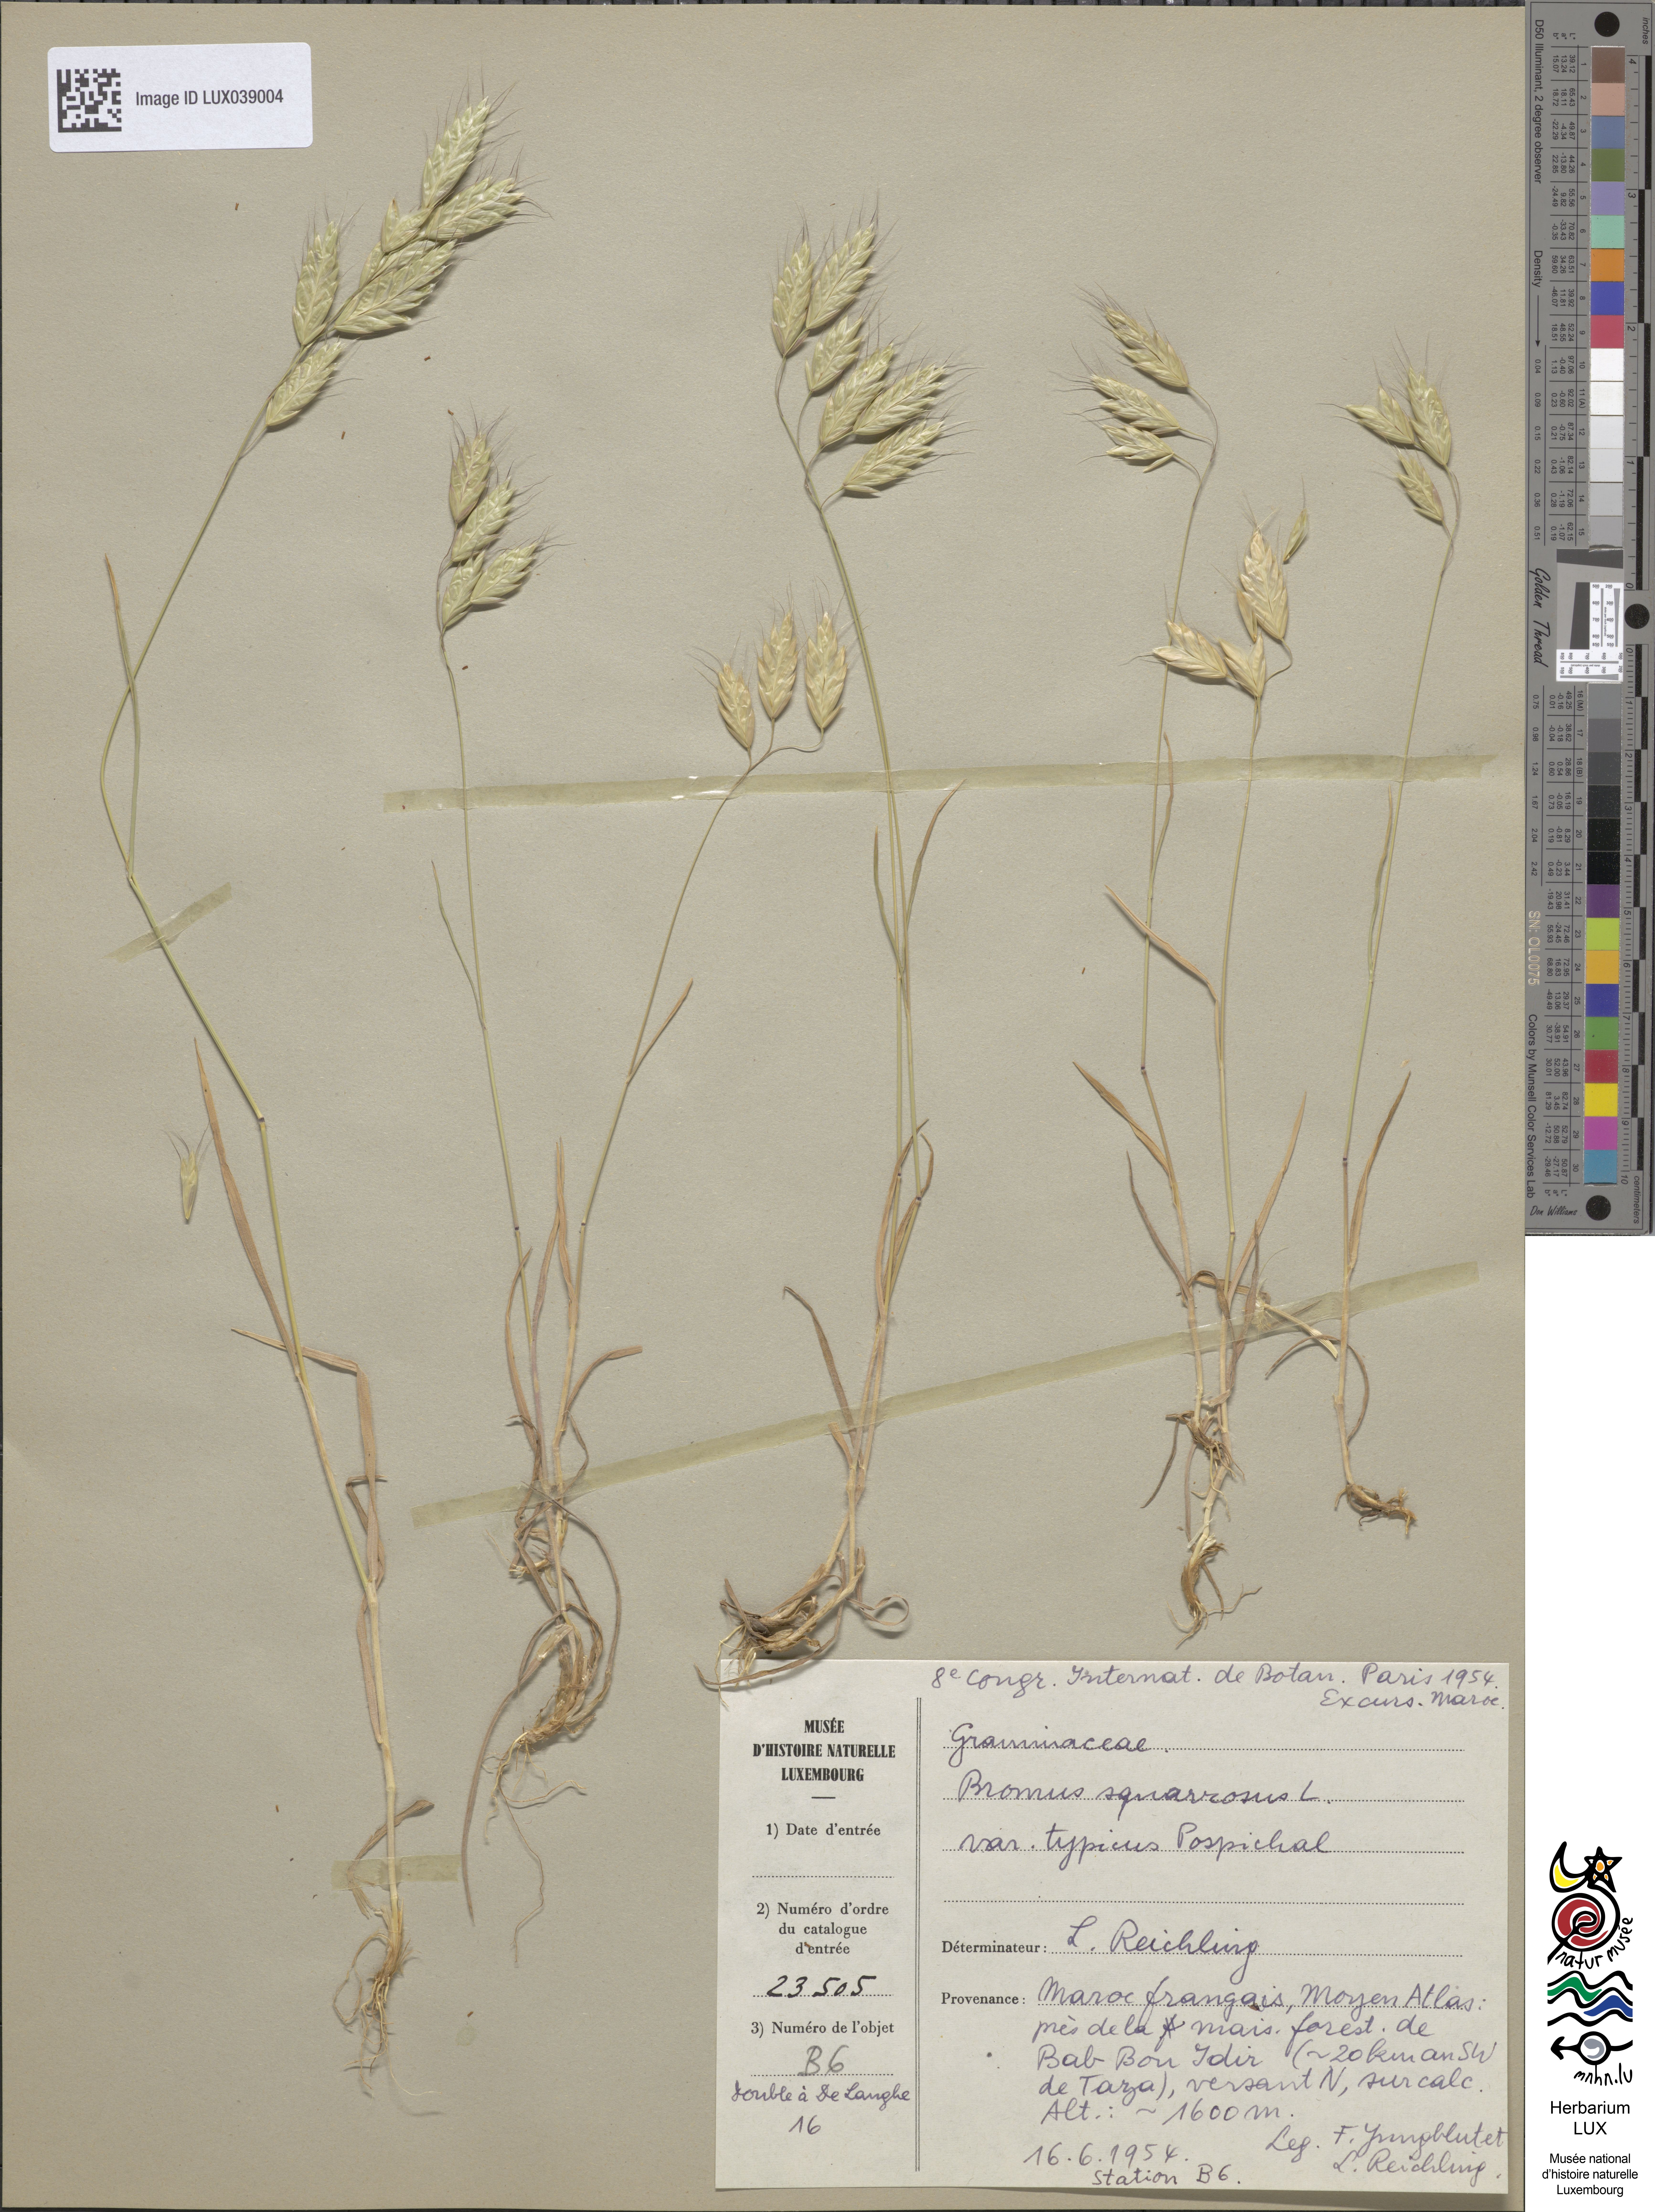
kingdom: Plantae
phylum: Tracheophyta
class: Liliopsida
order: Poales
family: Poaceae
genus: Bromus
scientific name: Bromus squarrosus
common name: Corn brome
